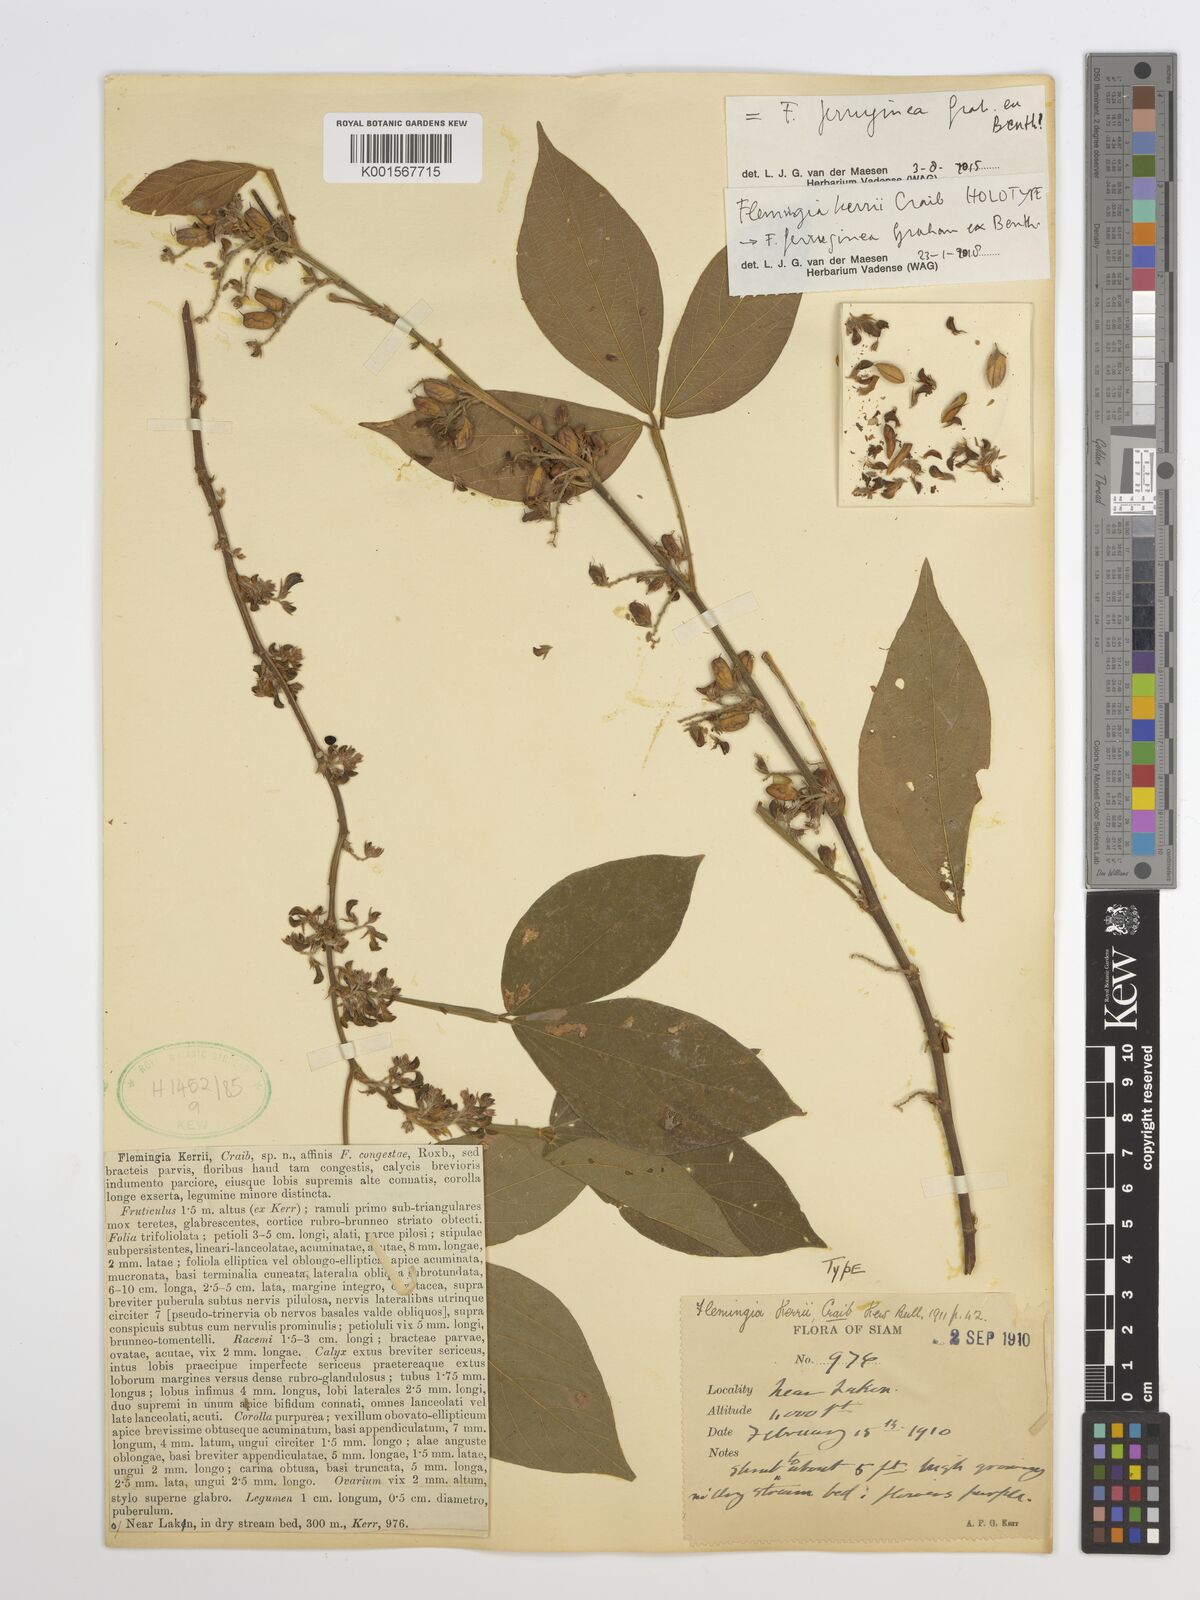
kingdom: Plantae
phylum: Tracheophyta
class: Magnoliopsida
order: Fabales
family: Fabaceae
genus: Flemingia
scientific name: Flemingia kerrii
